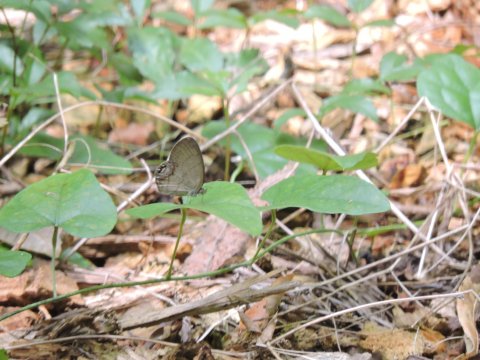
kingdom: Animalia
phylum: Arthropoda
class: Insecta
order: Lepidoptera
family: Nymphalidae
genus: Euptychia
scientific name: Euptychia cornelius
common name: Gemmed Satyr
